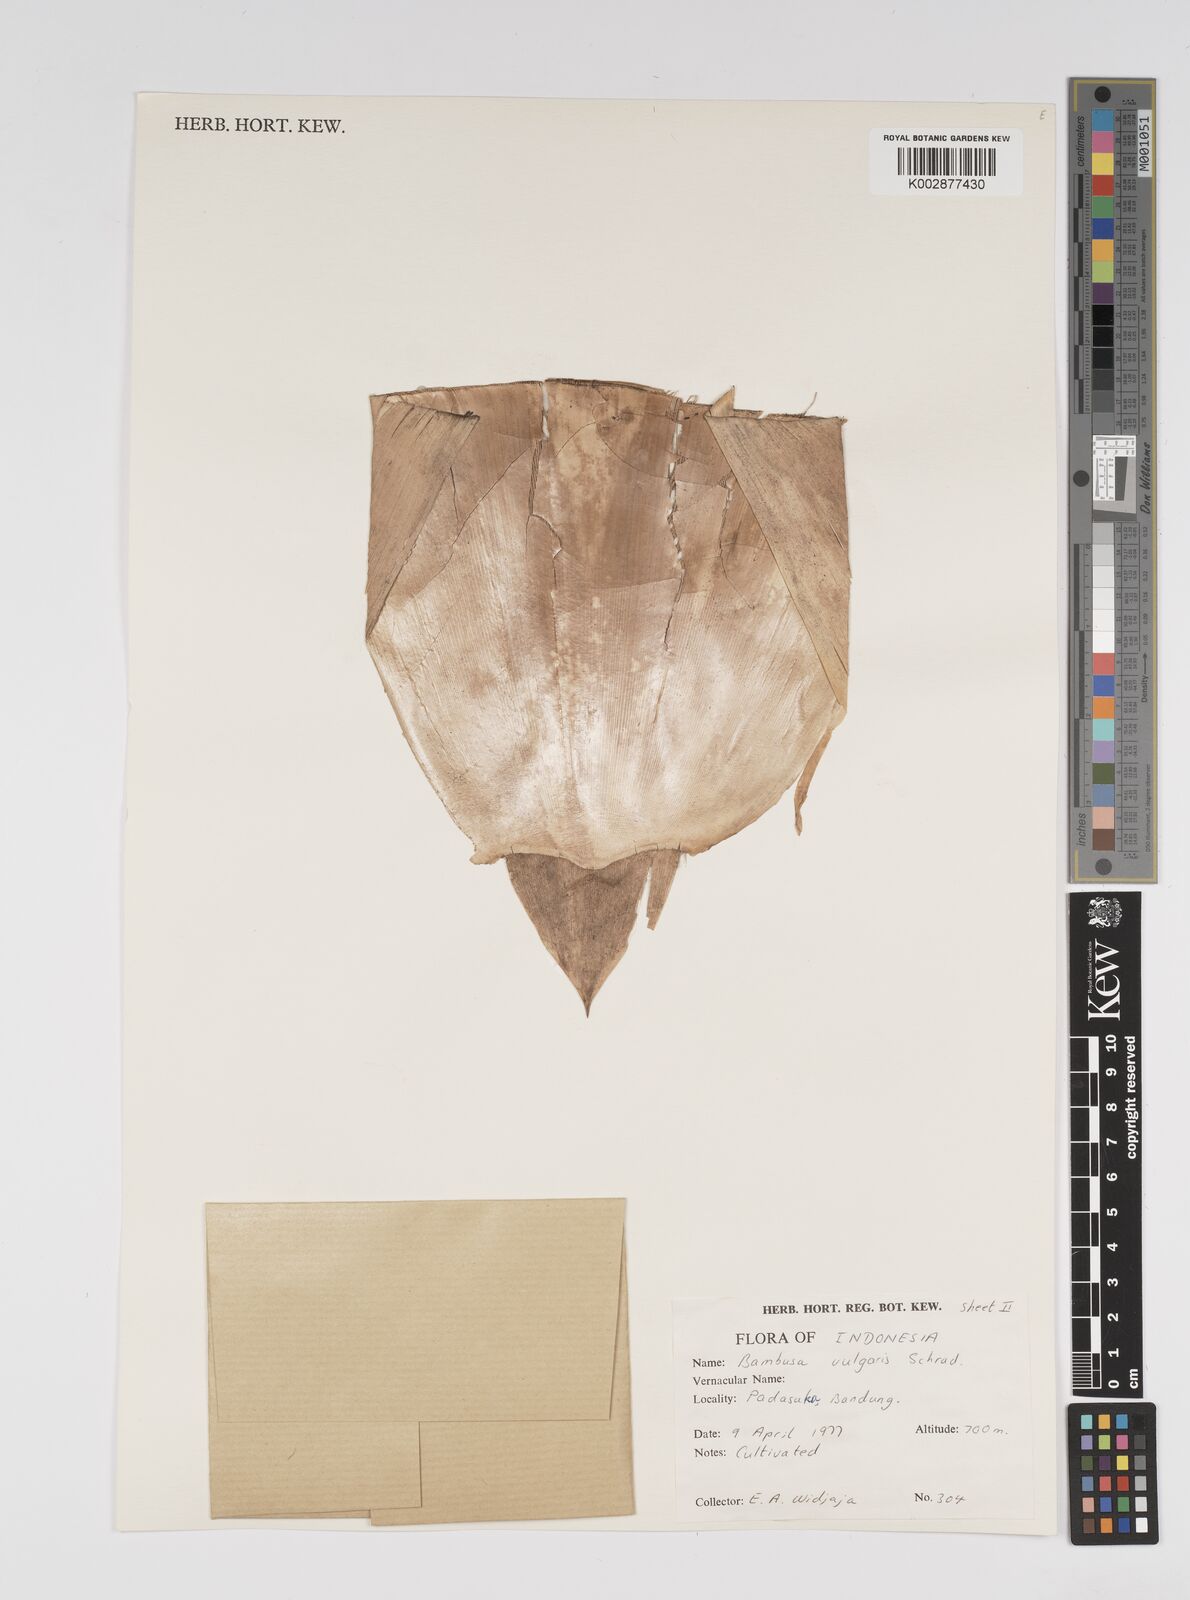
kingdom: Plantae
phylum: Tracheophyta
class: Liliopsida
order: Poales
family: Poaceae
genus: Bambusa
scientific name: Bambusa vulgaris
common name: Common bamboo
